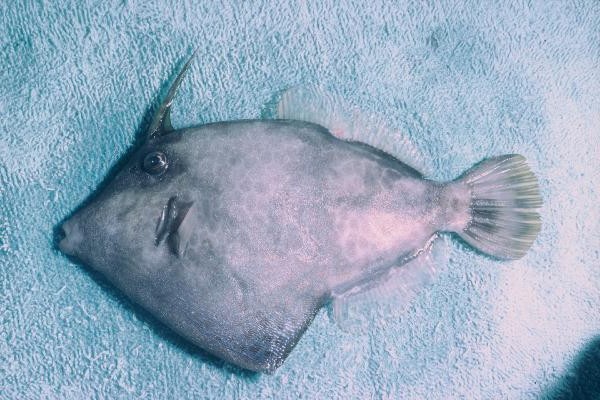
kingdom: Animalia
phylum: Chordata
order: Tetraodontiformes
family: Monacanthidae
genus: Cantherhines
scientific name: Cantherhines pardalis
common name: Honeycomb filefish
